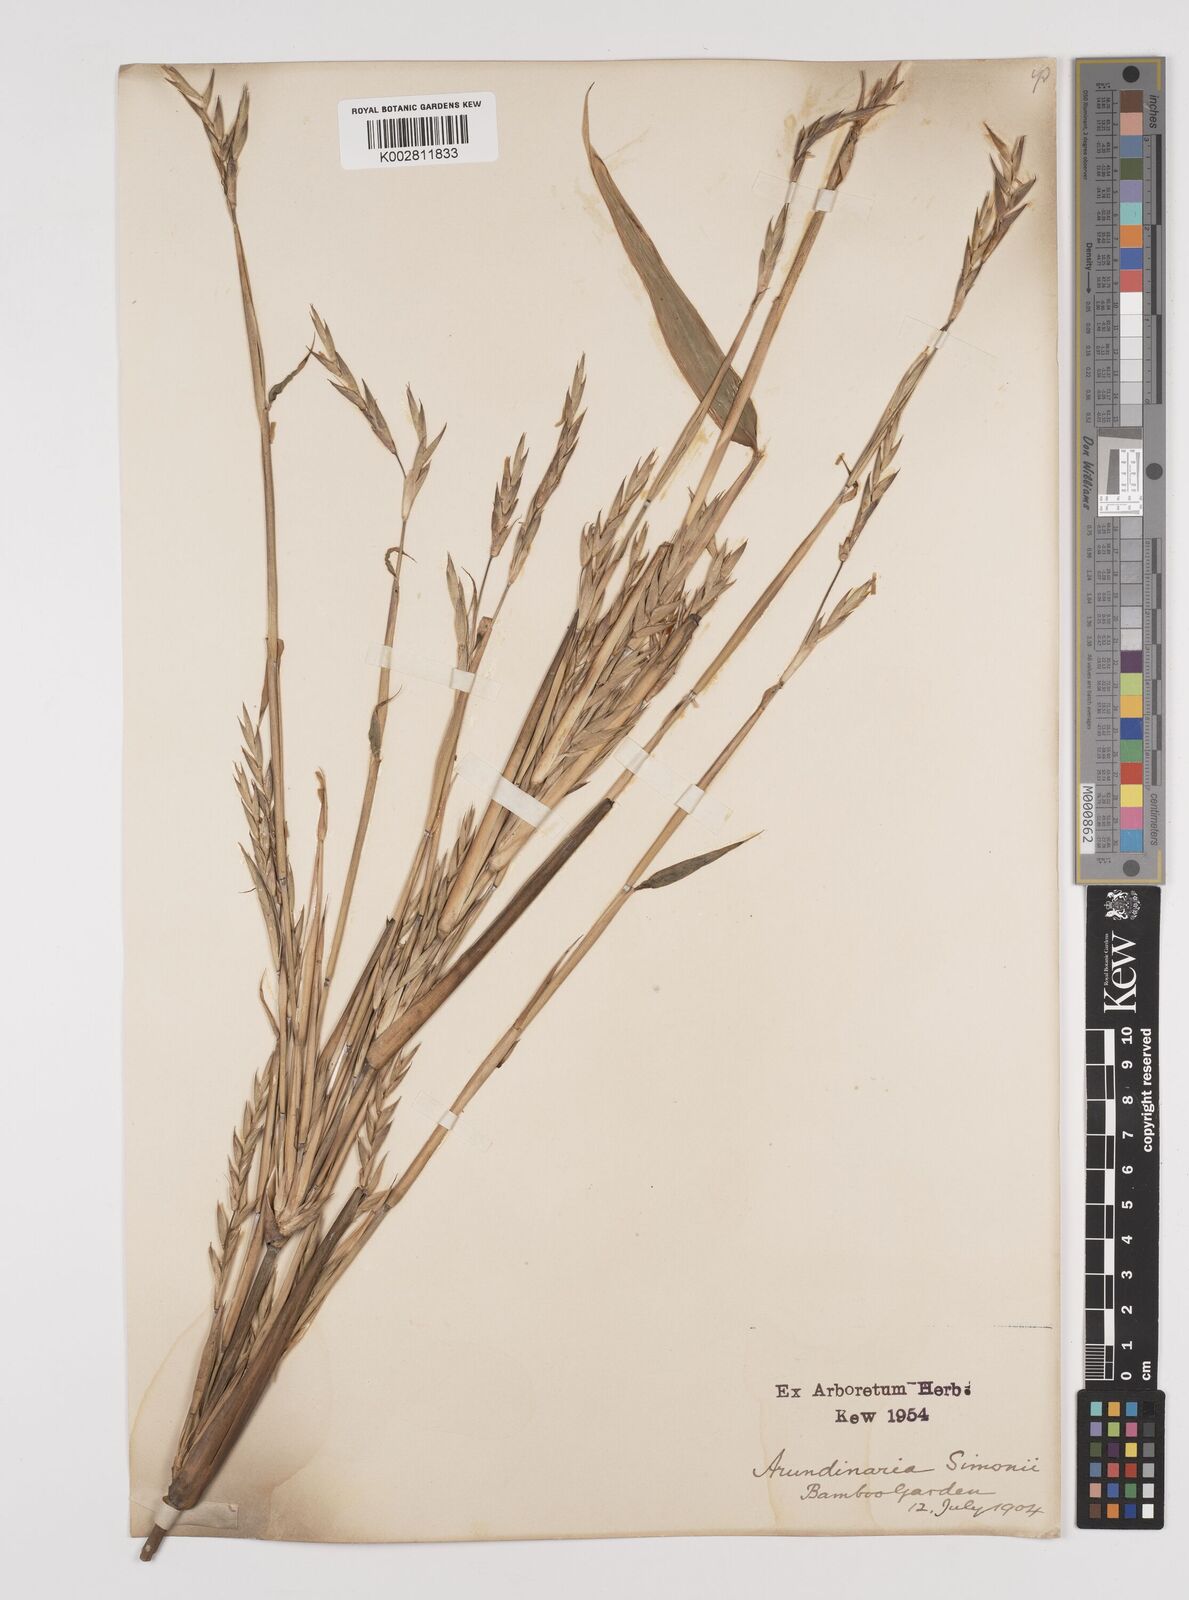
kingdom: Plantae
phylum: Tracheophyta
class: Liliopsida
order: Poales
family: Poaceae
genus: Pleioblastus
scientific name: Pleioblastus simonii
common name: Simon bamboo
